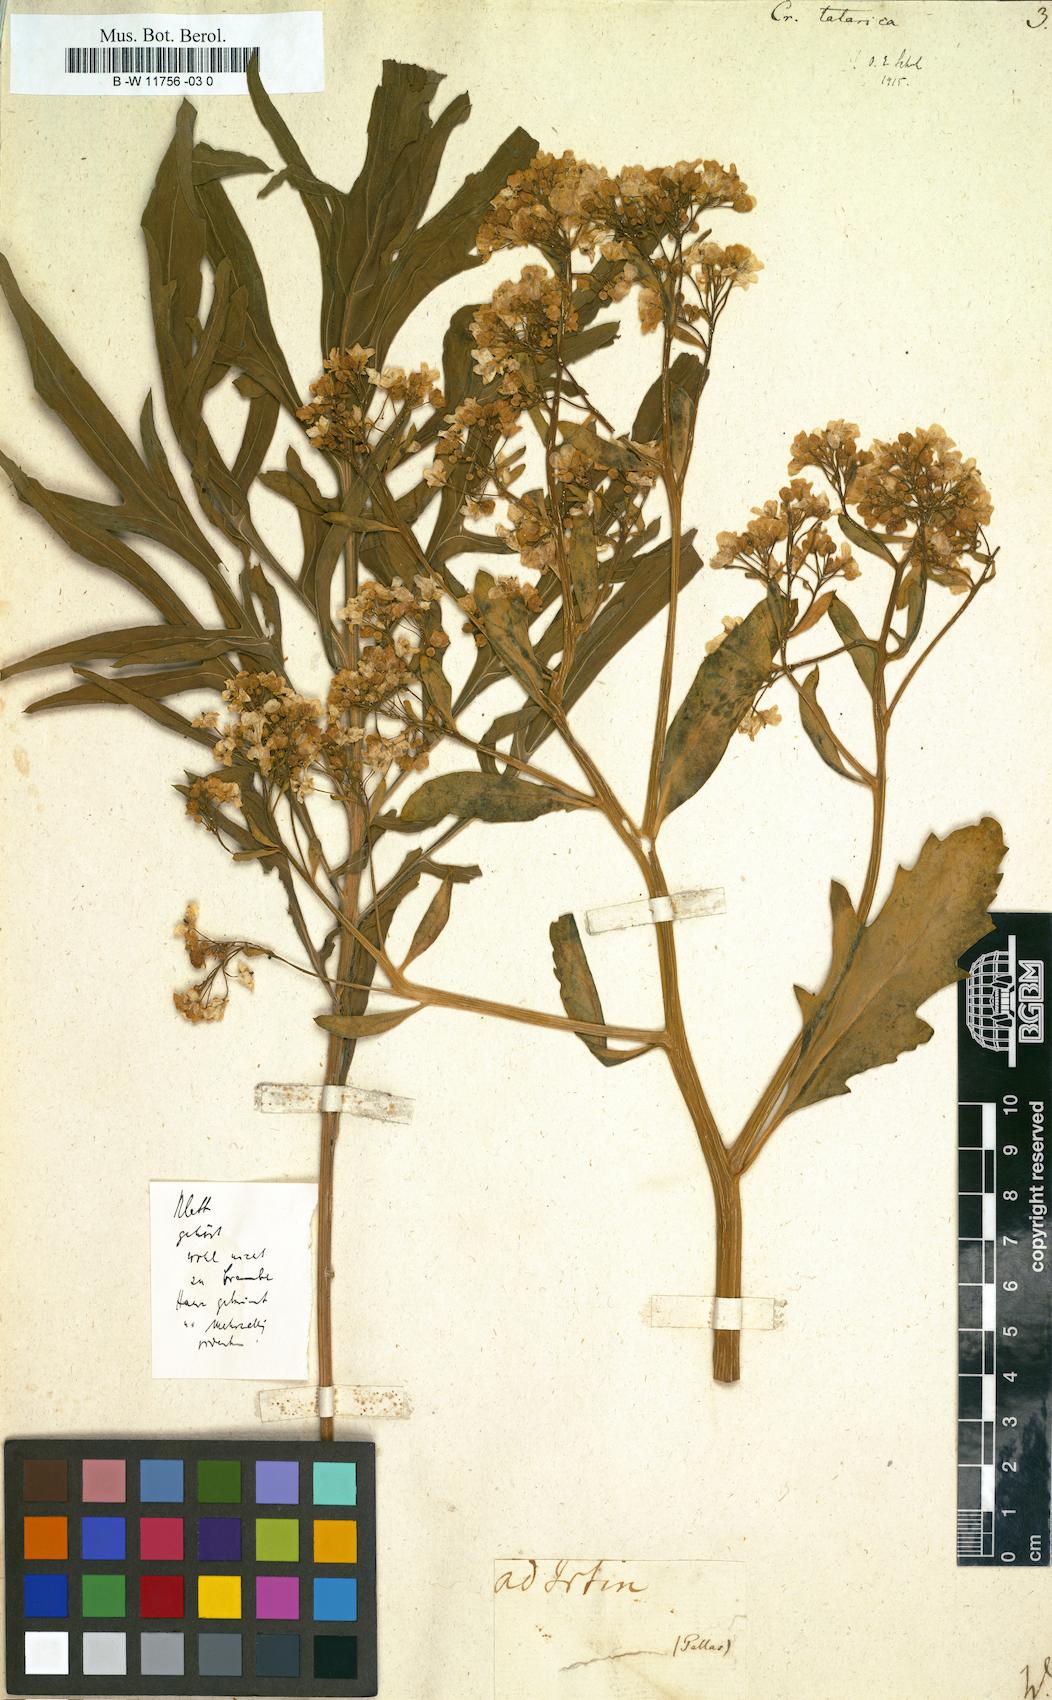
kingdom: Plantae
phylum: Tracheophyta
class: Magnoliopsida
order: Brassicales
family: Brassicaceae
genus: Crambe
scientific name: Crambe tatarica
